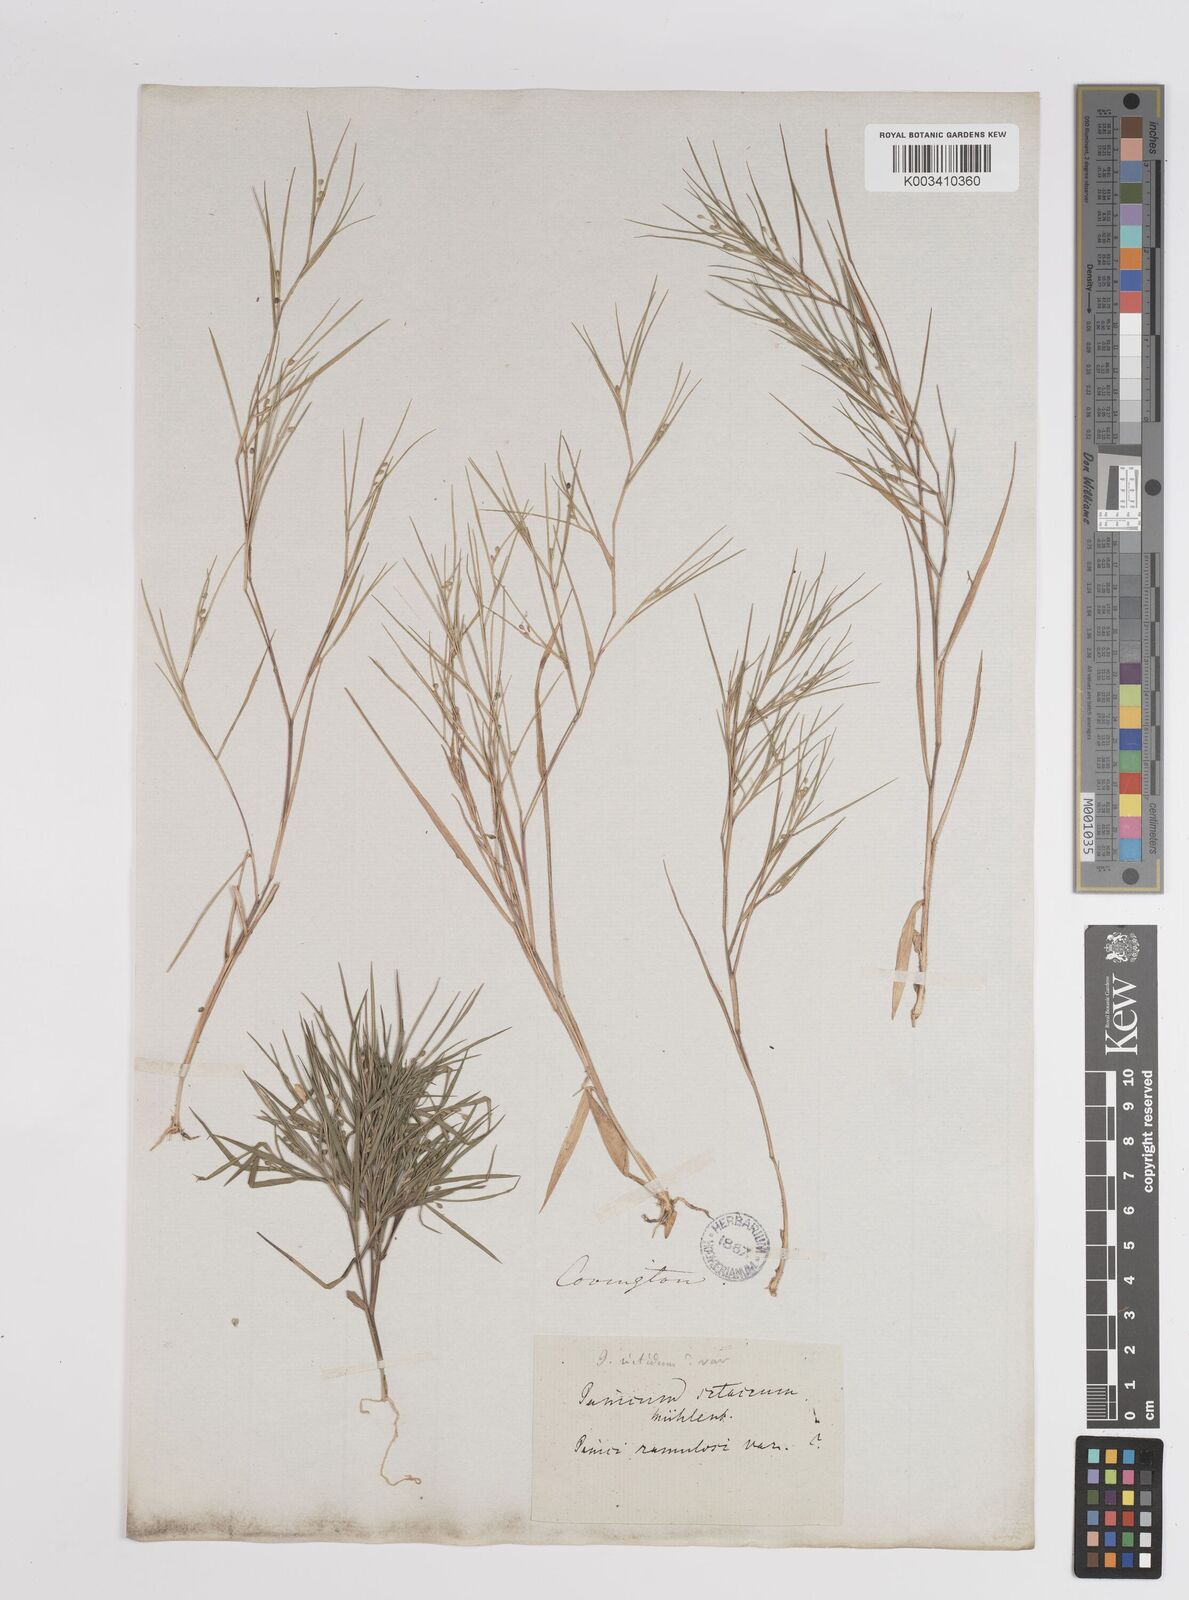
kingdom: Plantae
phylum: Tracheophyta
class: Liliopsida
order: Poales
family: Poaceae
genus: Dichanthelium
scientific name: Dichanthelium angustifolium
